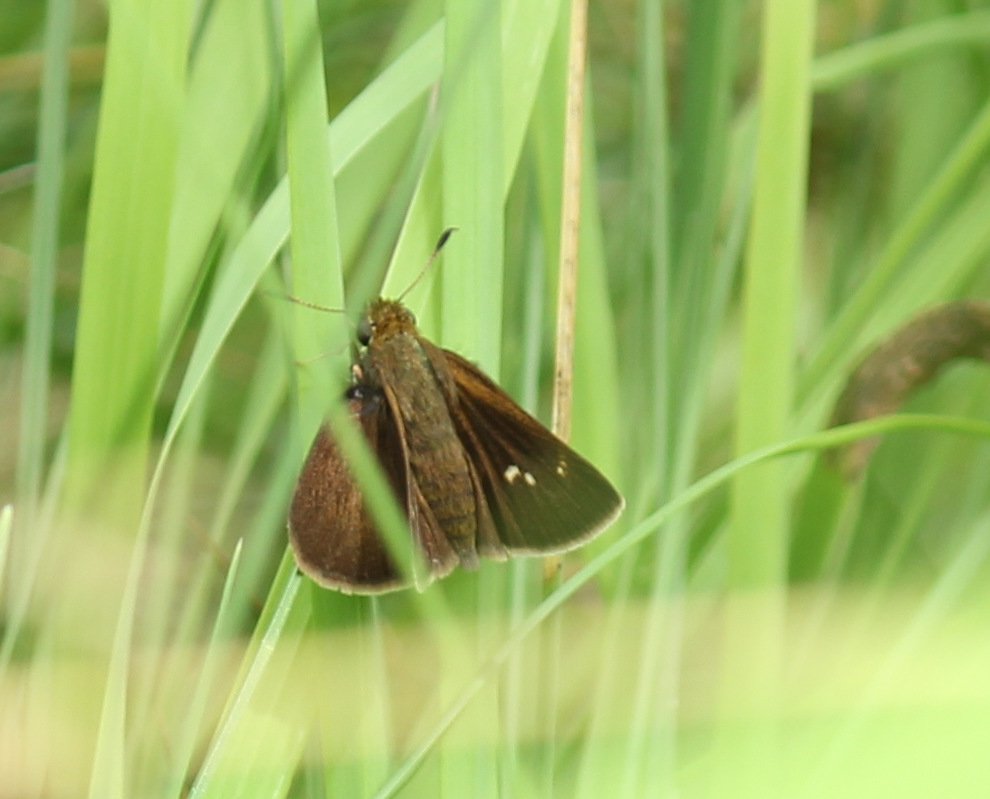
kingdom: Animalia
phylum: Arthropoda
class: Insecta
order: Lepidoptera
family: Hesperiidae
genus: Euphyes
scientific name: Euphyes vestris
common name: Dun Skipper
